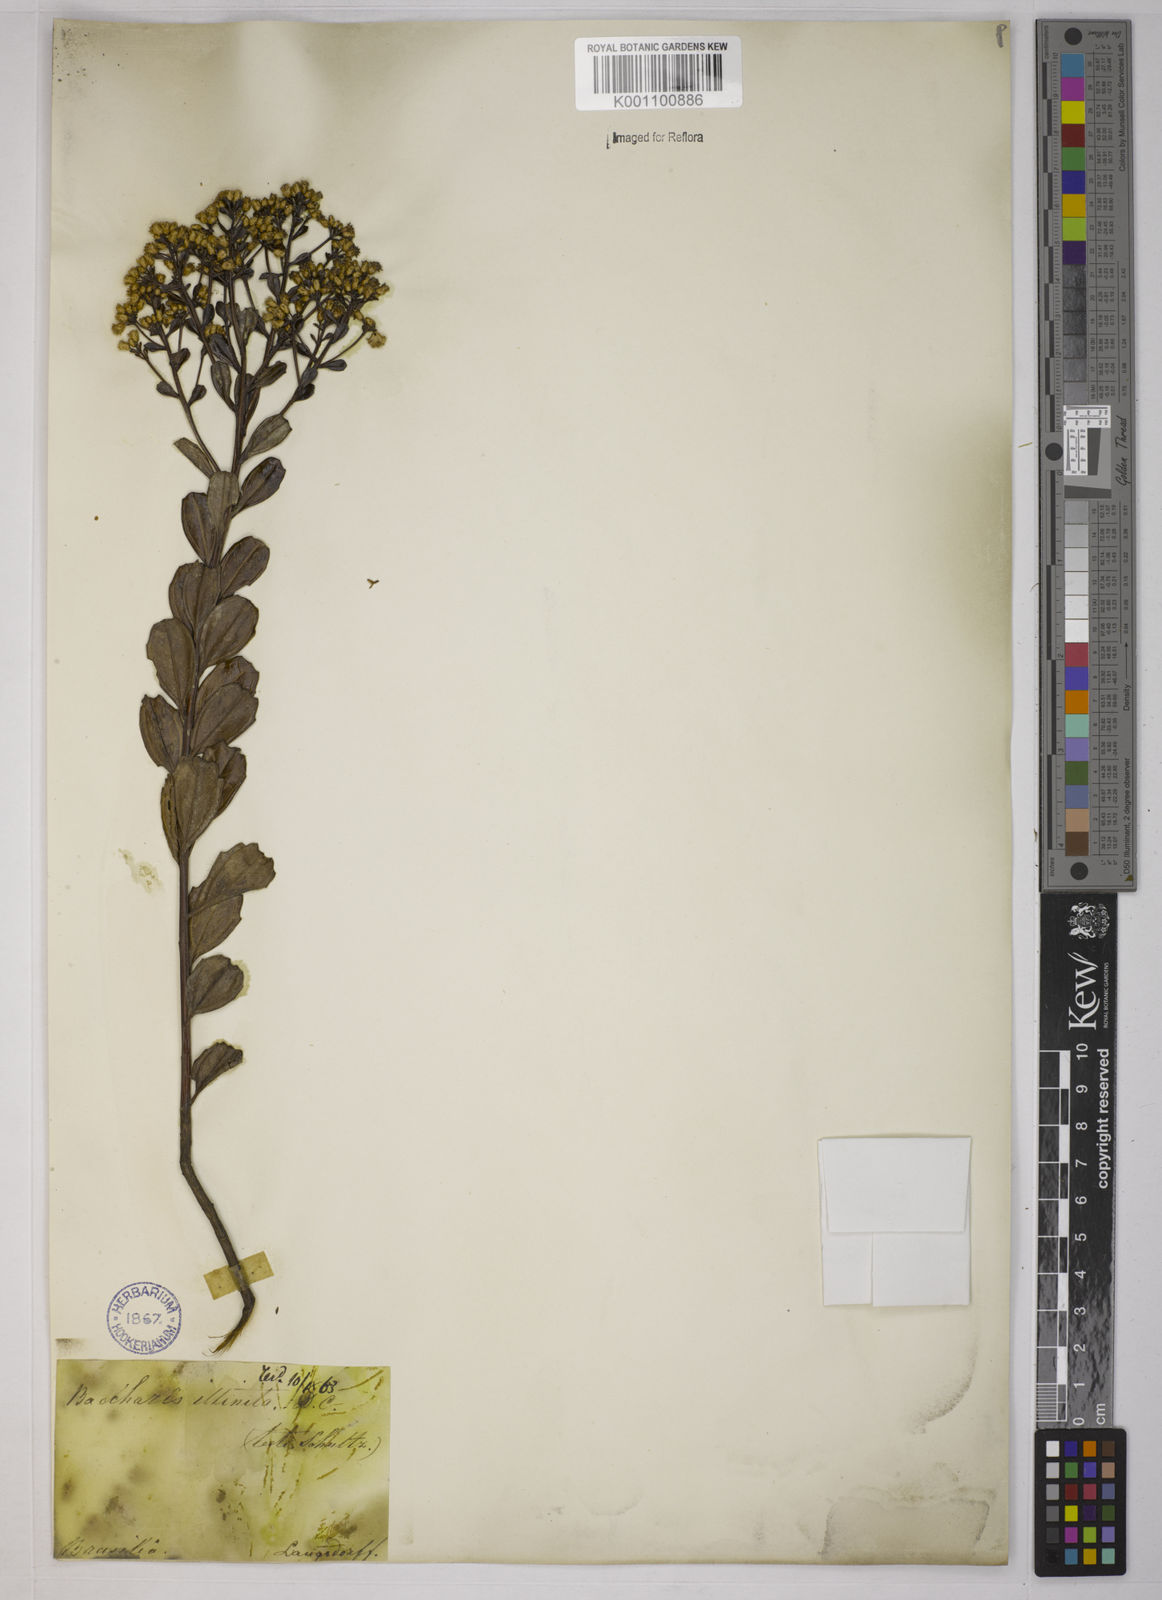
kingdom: Plantae
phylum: Tracheophyta
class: Magnoliopsida
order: Asterales
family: Asteraceae
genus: Baccharis
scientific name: Baccharis tridentata
